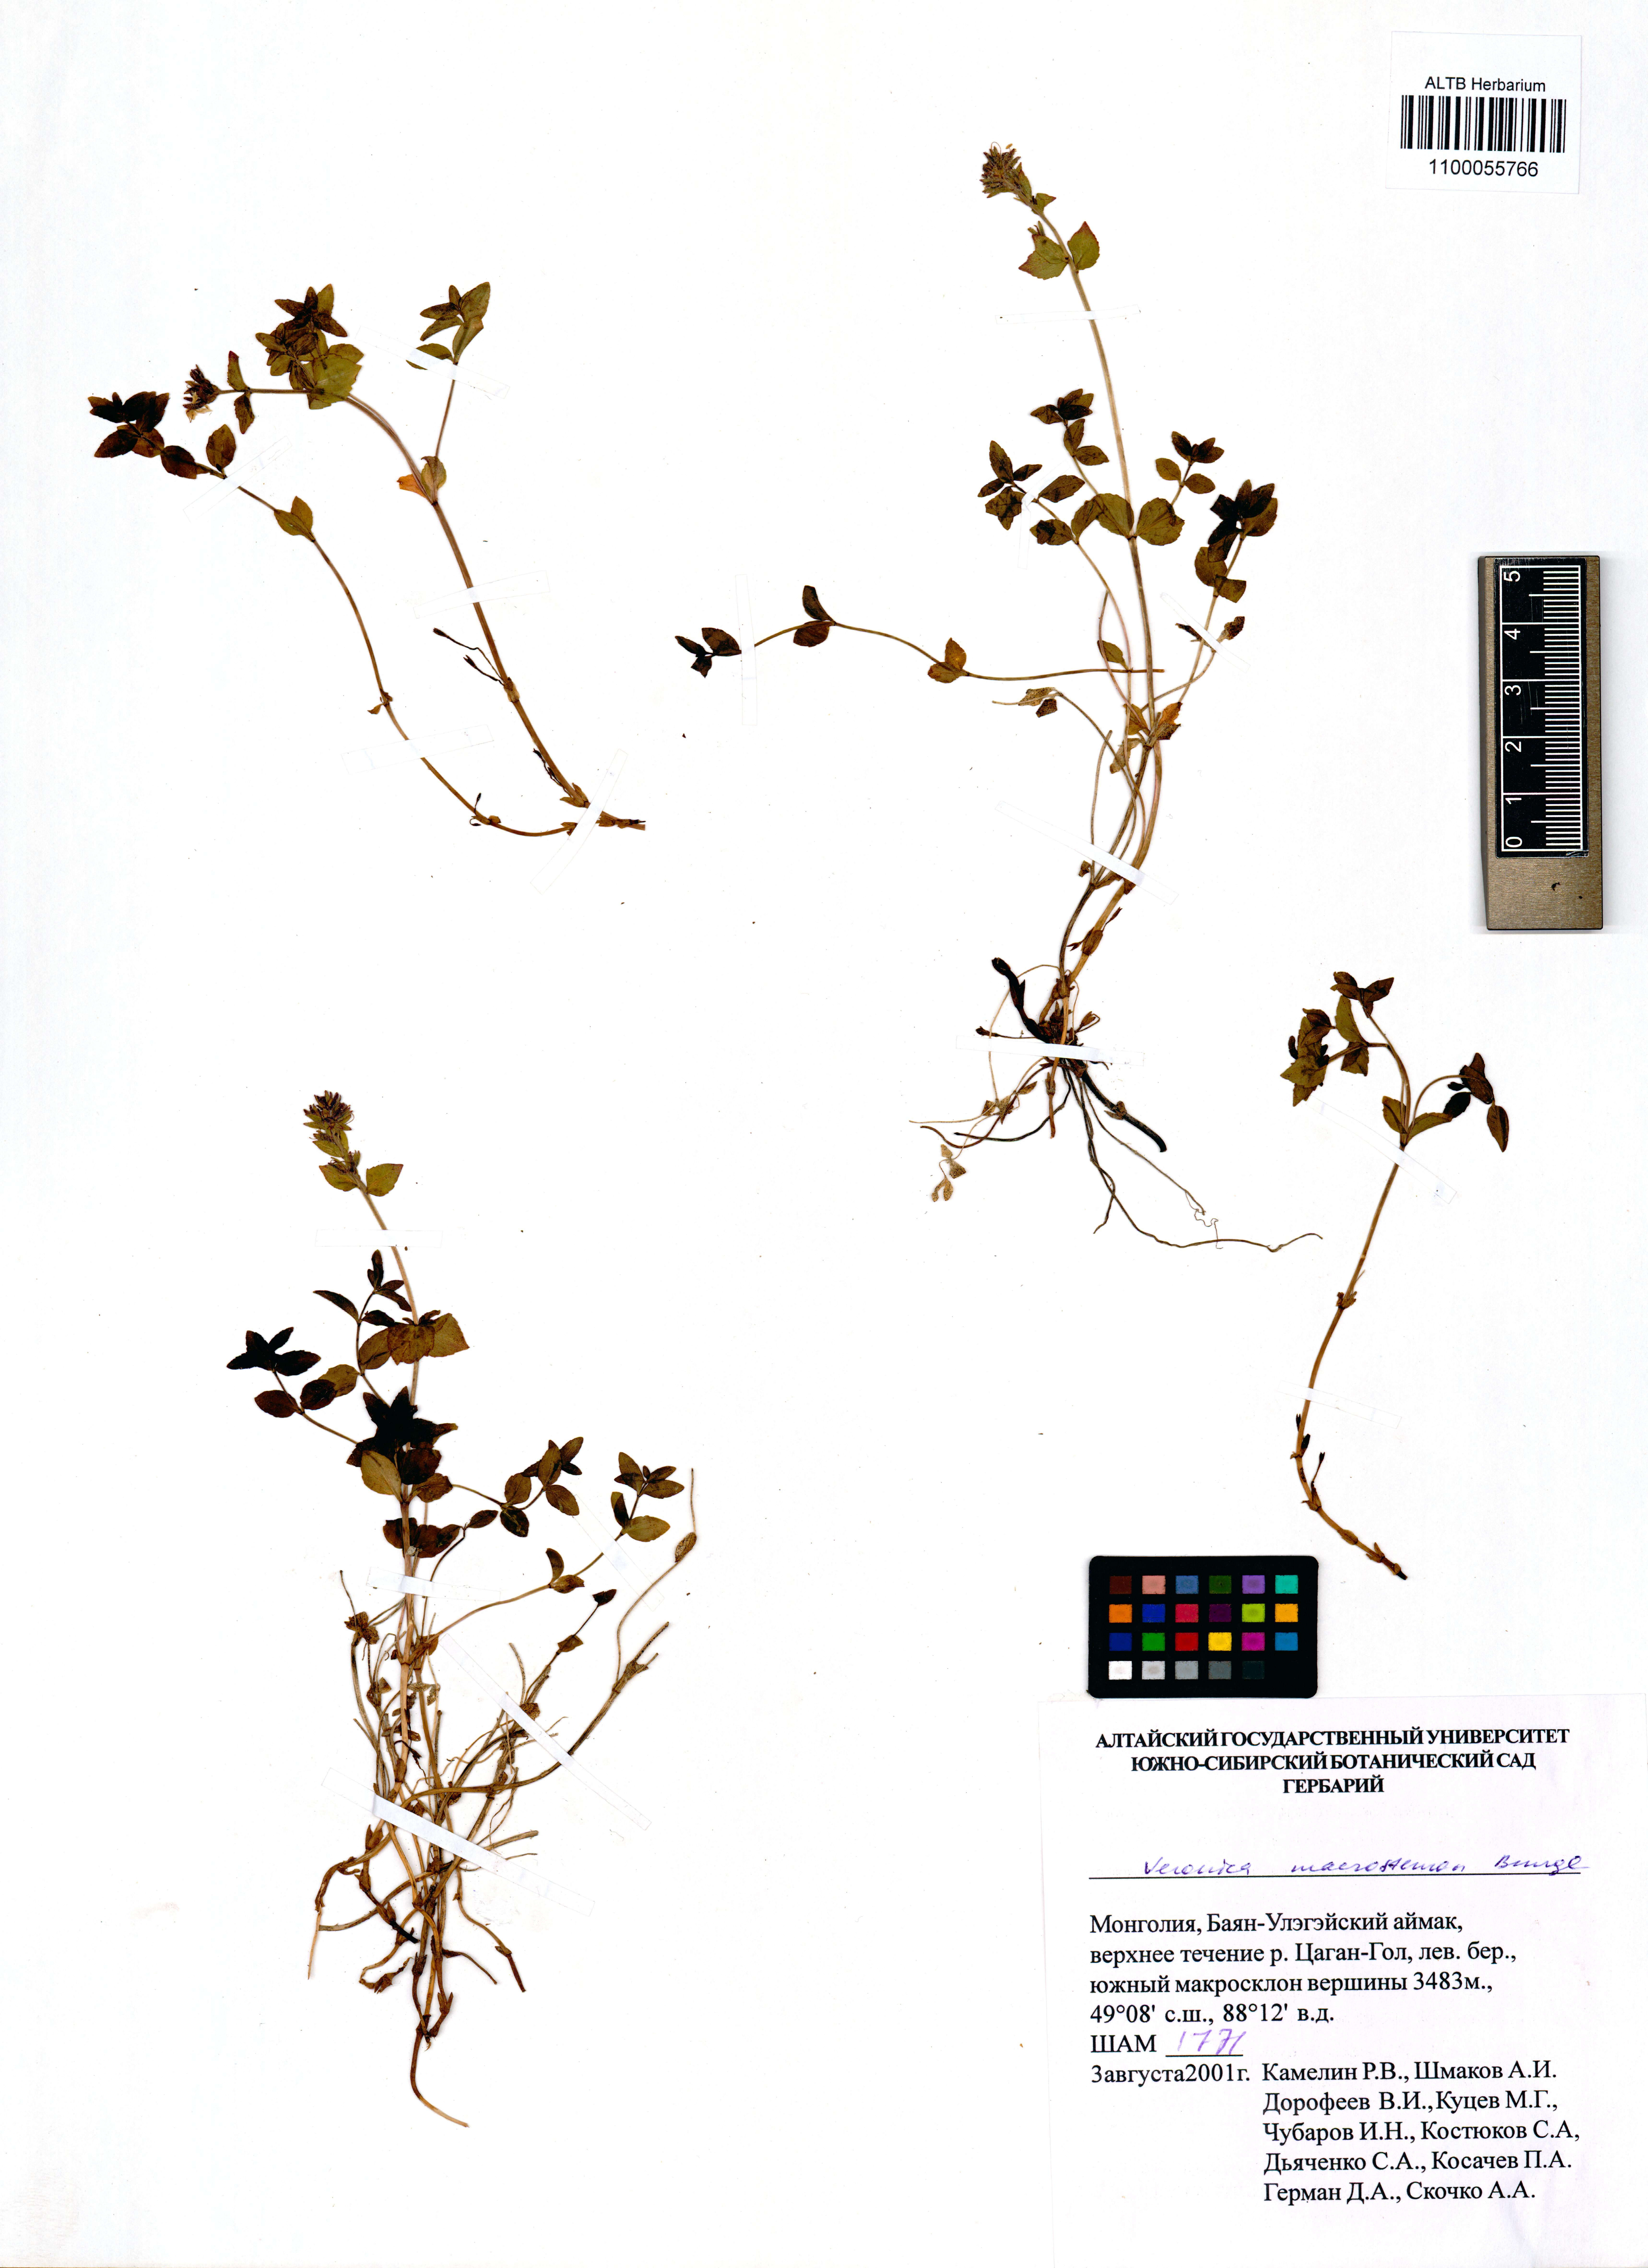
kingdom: Plantae
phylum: Tracheophyta
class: Magnoliopsida
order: Lamiales
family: Plantaginaceae
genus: Veronica
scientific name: Veronica macrostemon
